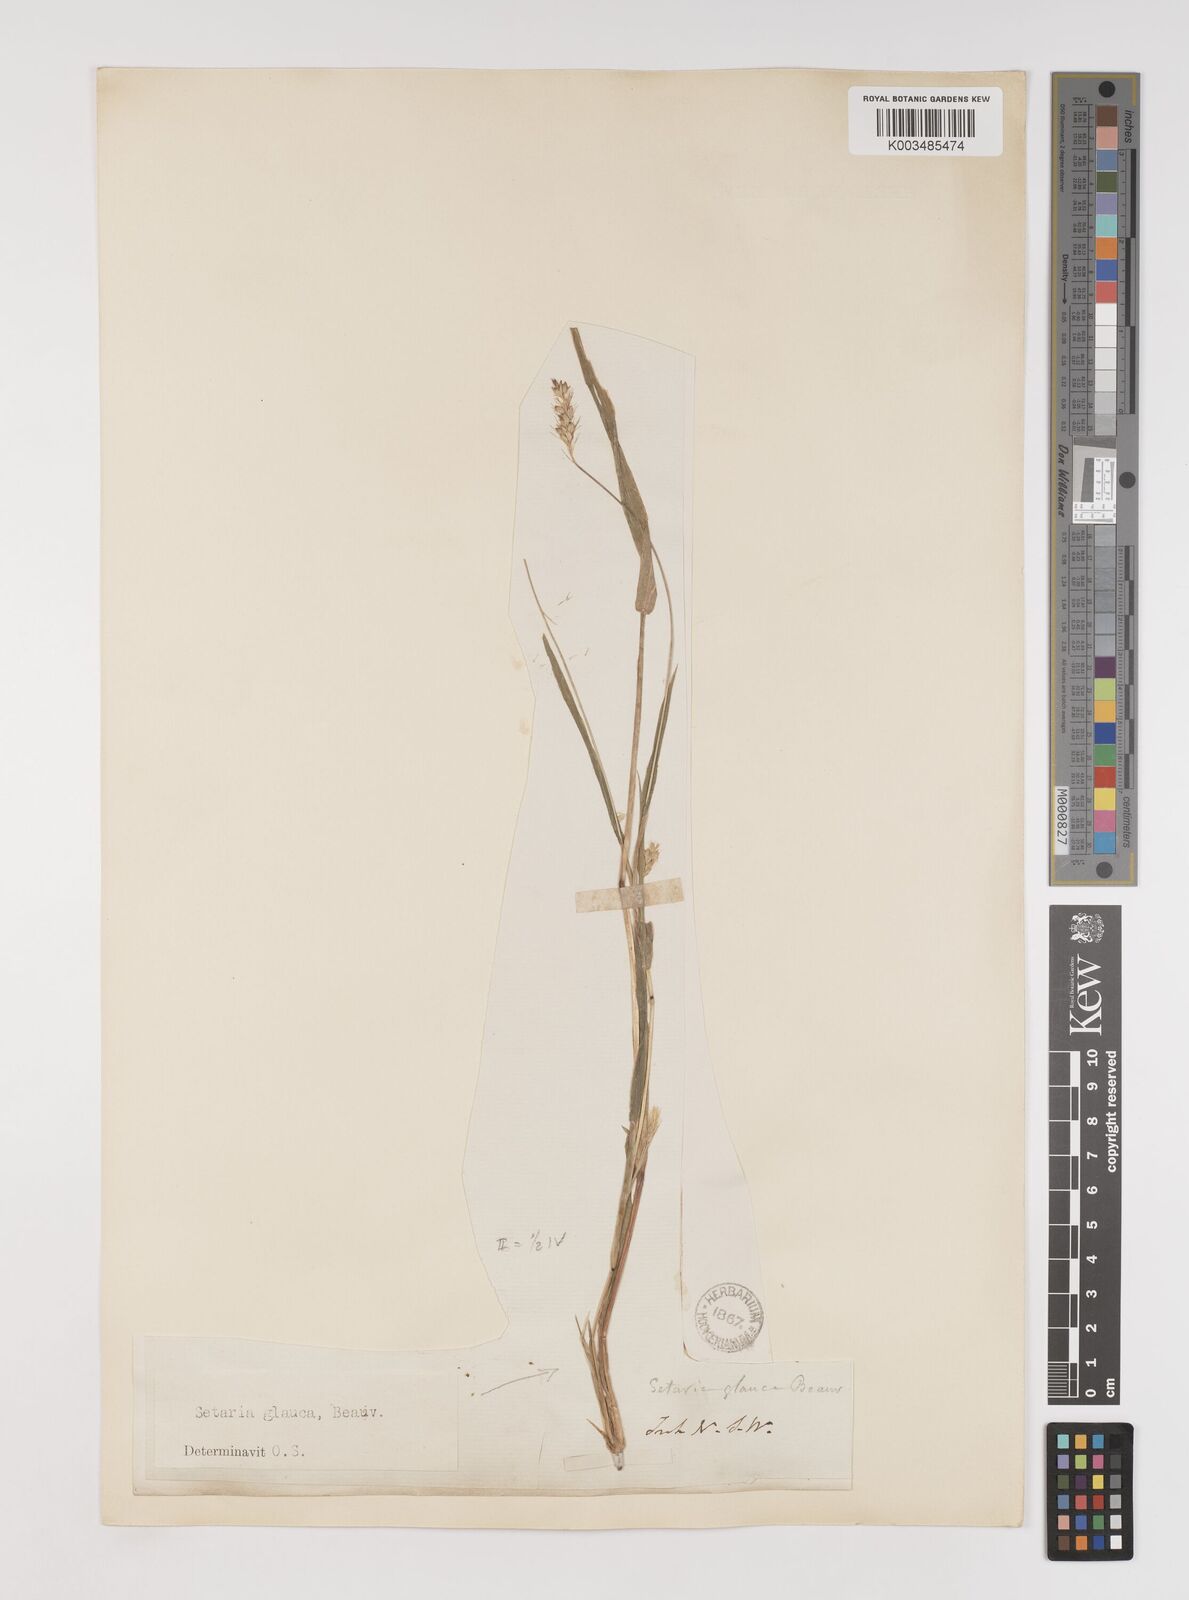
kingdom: Plantae
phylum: Tracheophyta
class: Liliopsida
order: Poales
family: Poaceae
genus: Setaria
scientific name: Setaria pumila
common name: Yellow bristle-grass
